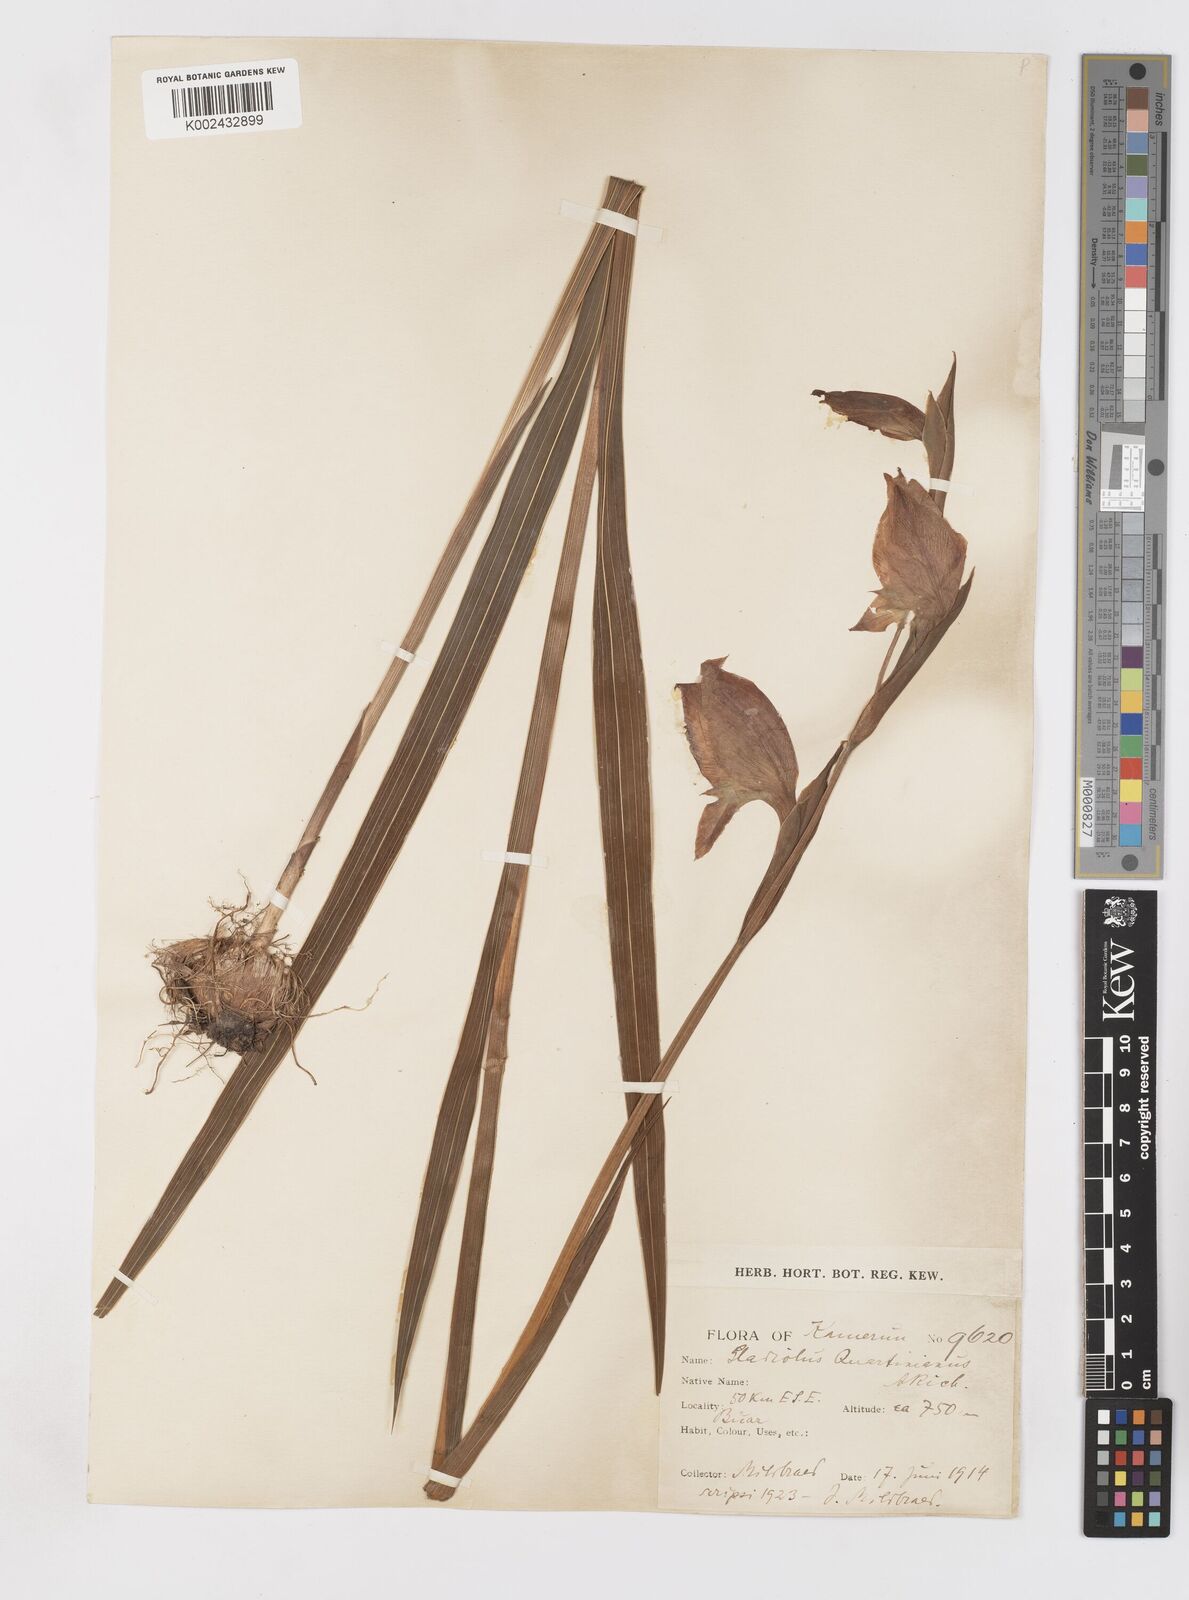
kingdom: Plantae
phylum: Tracheophyta
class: Liliopsida
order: Asparagales
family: Iridaceae
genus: Gladiolus
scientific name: Gladiolus dalenii
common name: Cornflag
